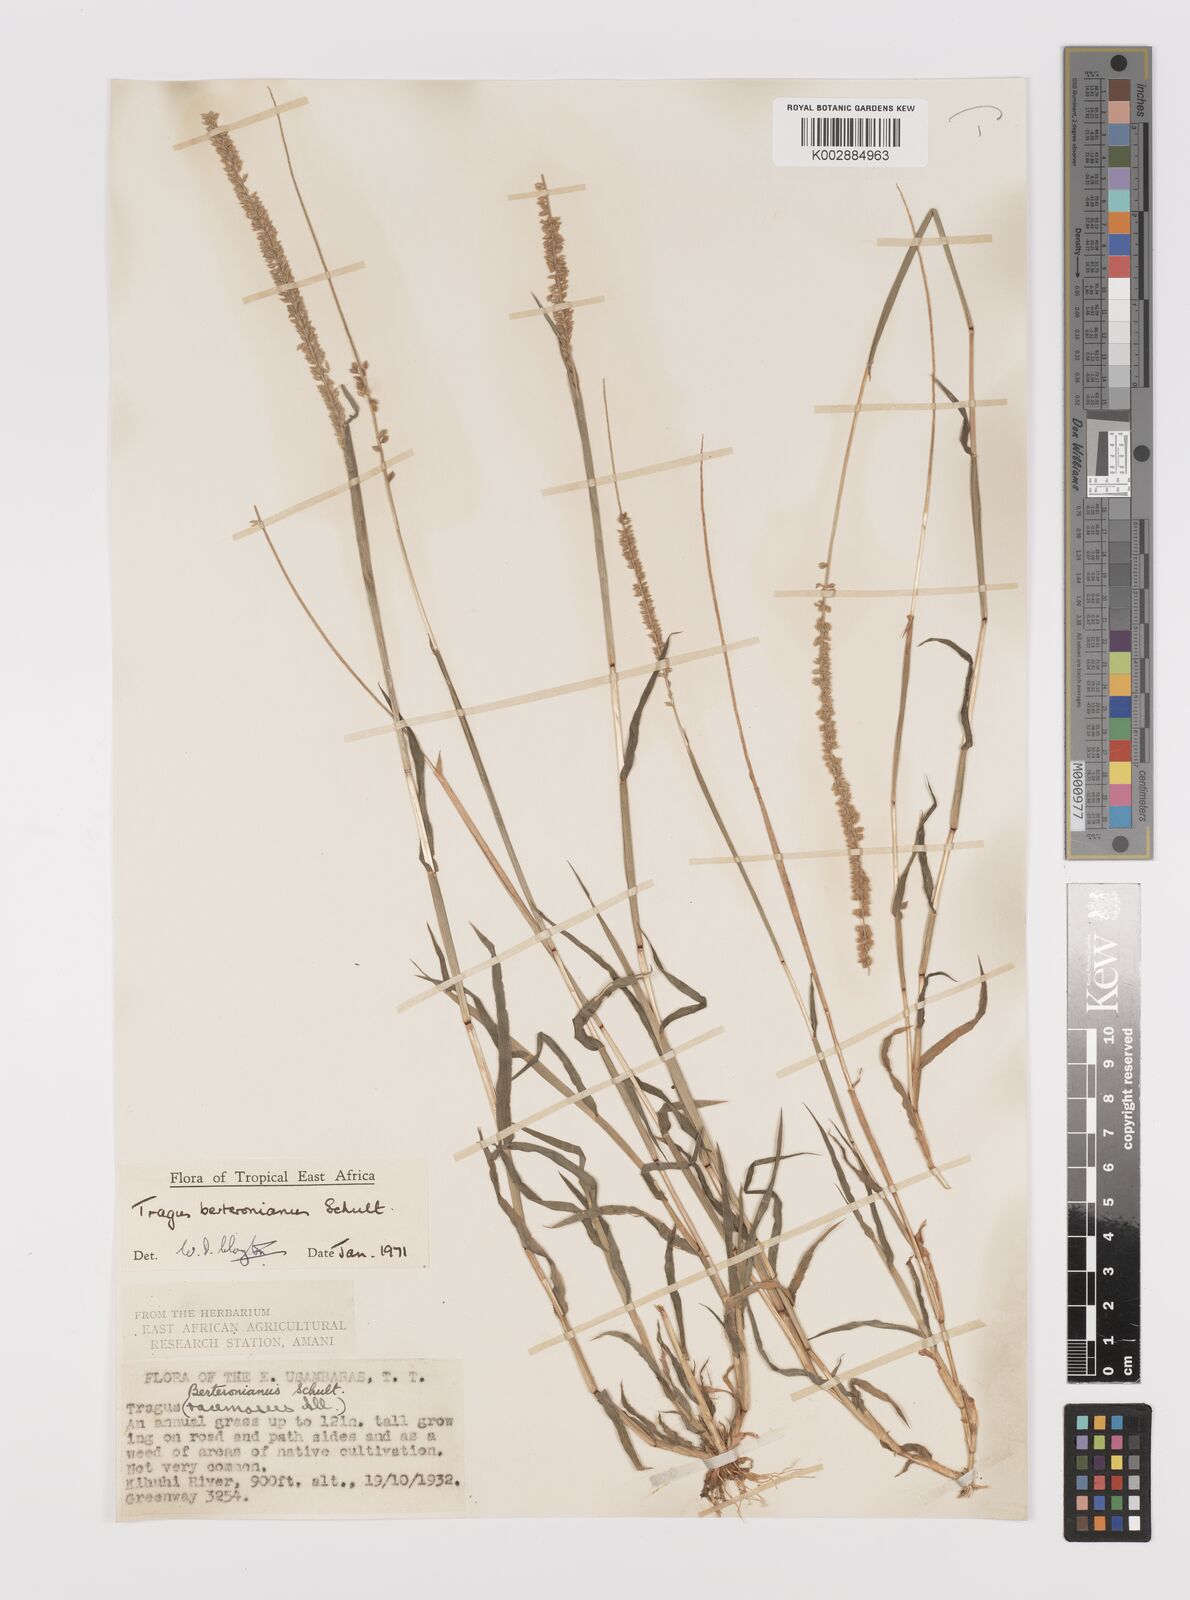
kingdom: Plantae
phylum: Tracheophyta
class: Liliopsida
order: Poales
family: Poaceae
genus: Tragus
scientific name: Tragus berteronianus
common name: African bur-grass
